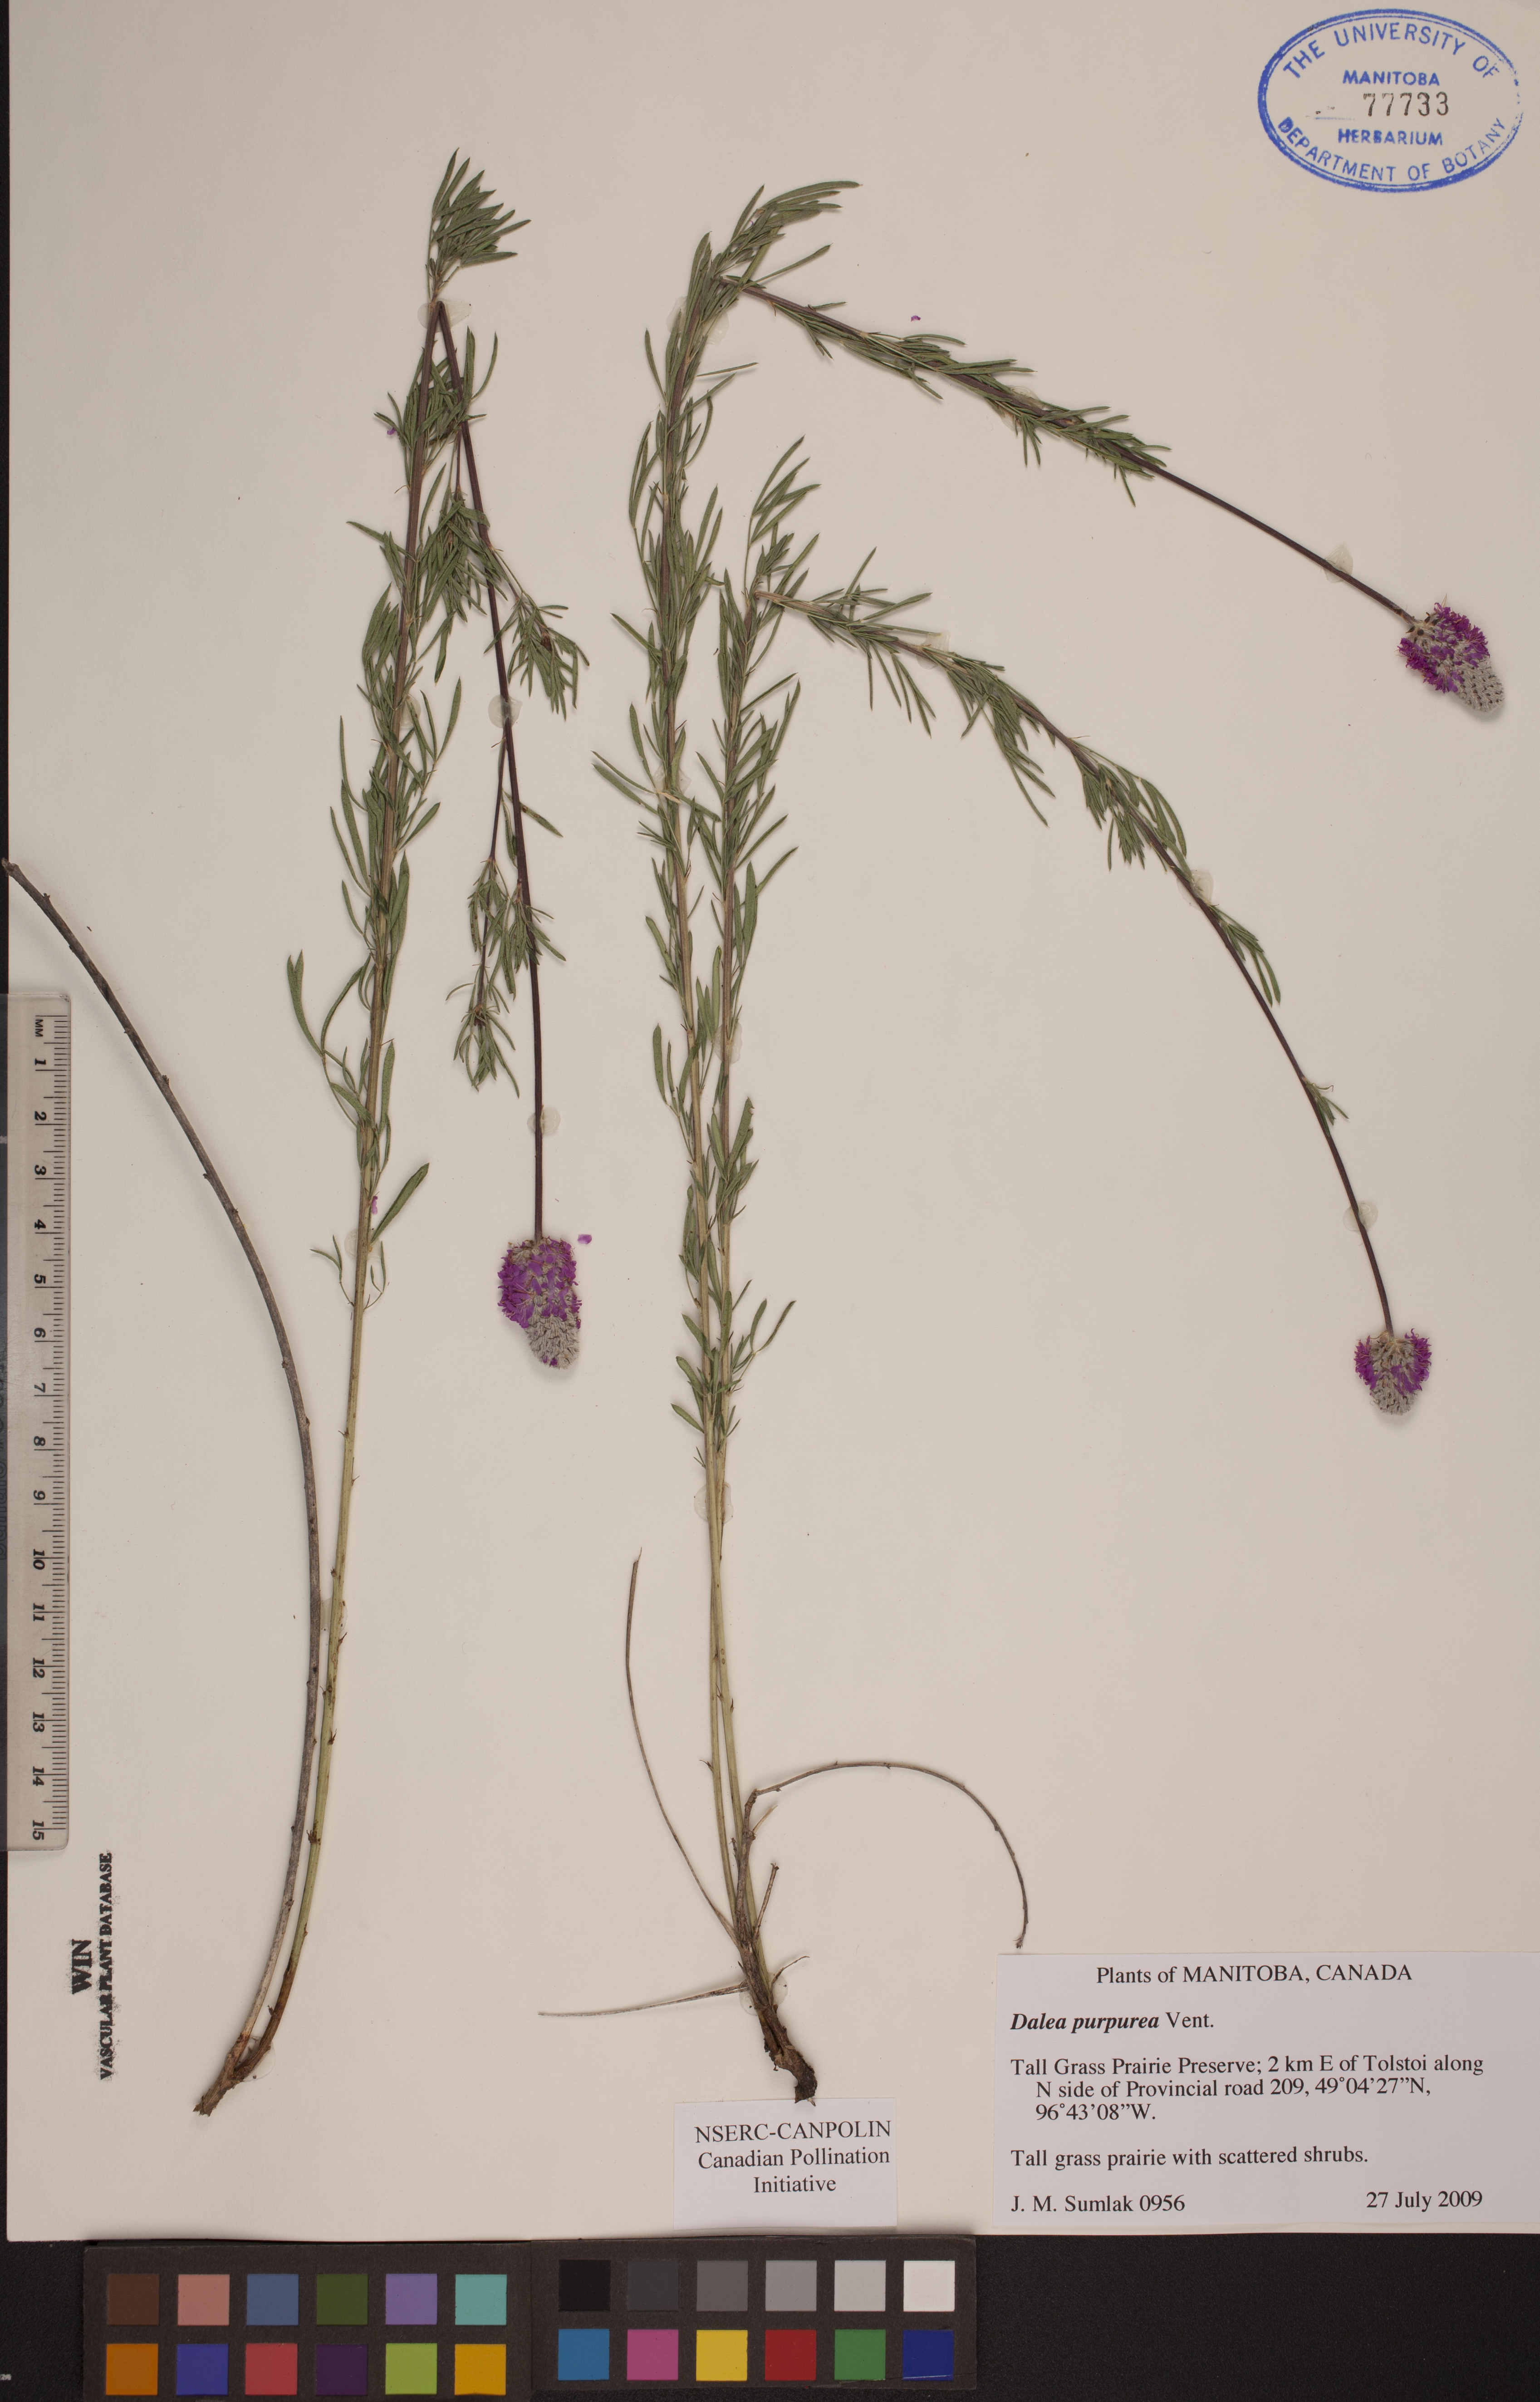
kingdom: Plantae
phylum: Tracheophyta
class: Magnoliopsida
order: Fabales
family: Fabaceae
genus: Dalea
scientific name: Dalea purpurea
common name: Purple prairie-clover
